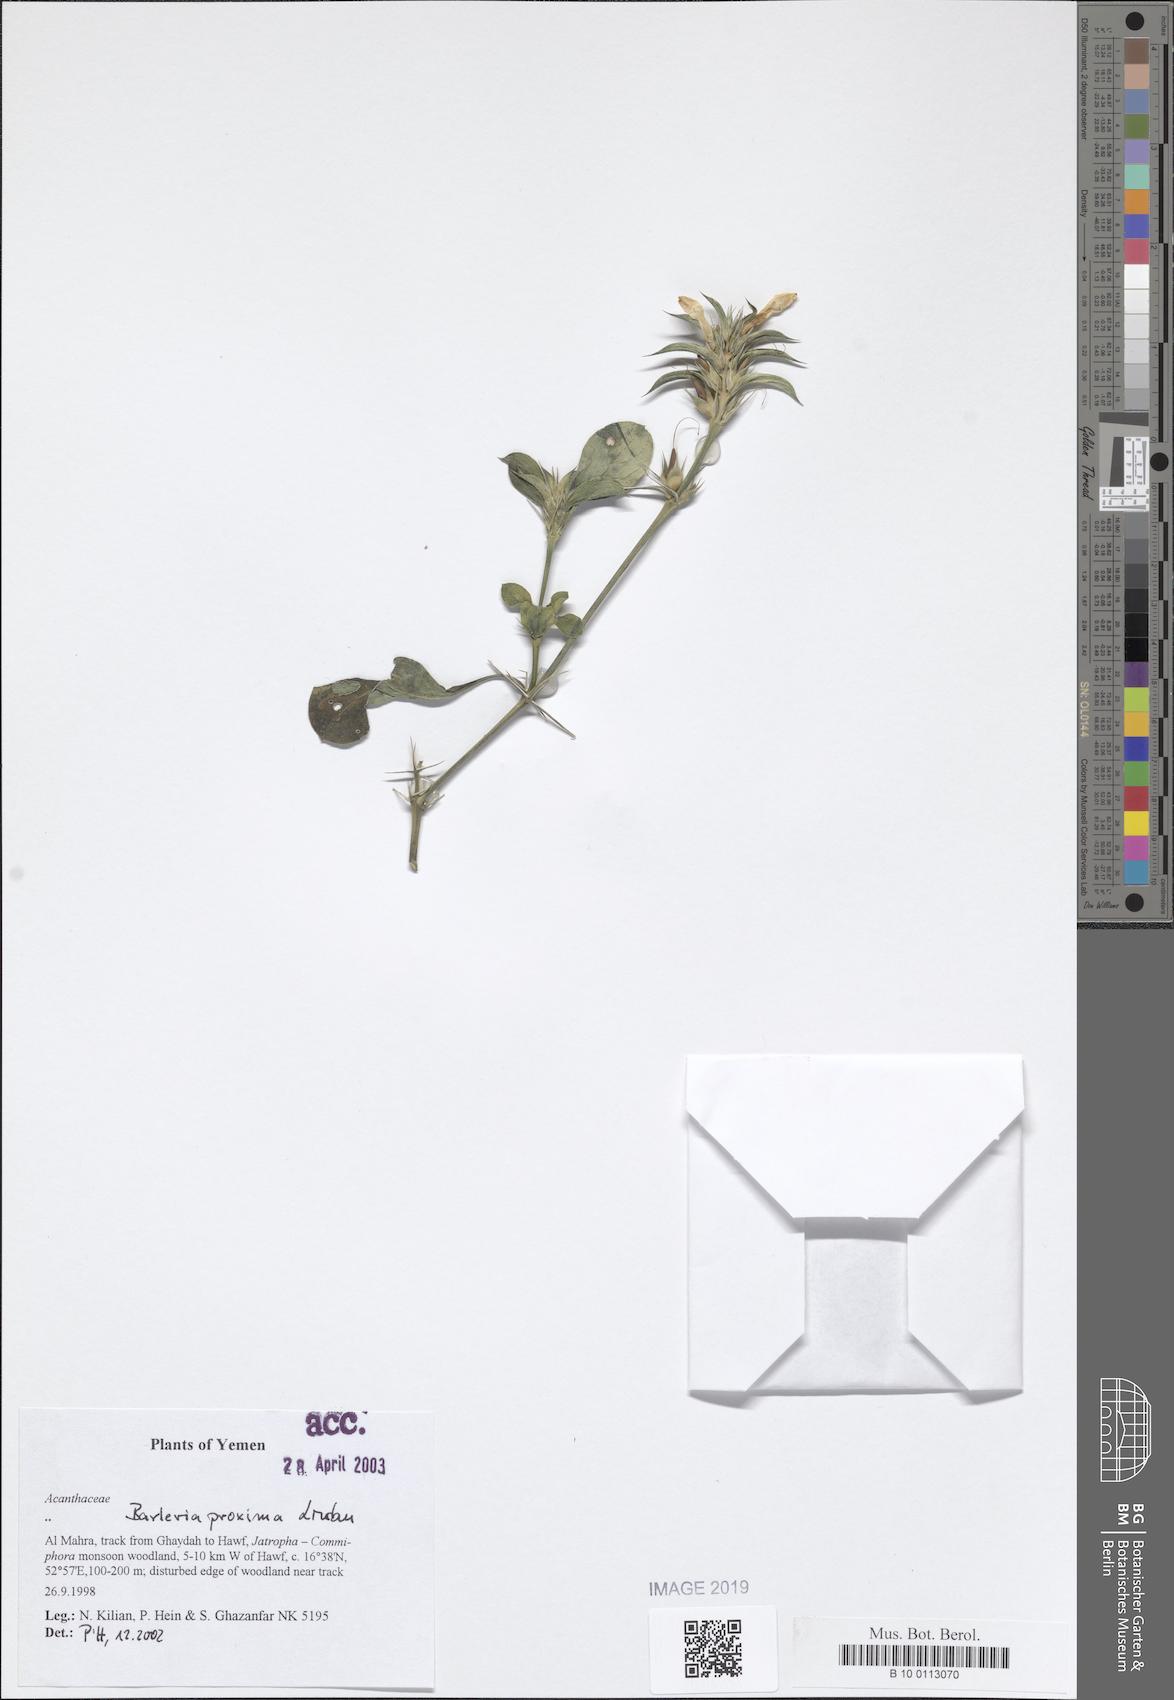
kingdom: Plantae
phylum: Tracheophyta
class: Magnoliopsida
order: Lamiales
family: Acanthaceae
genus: Barleria
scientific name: Barleria proxima
